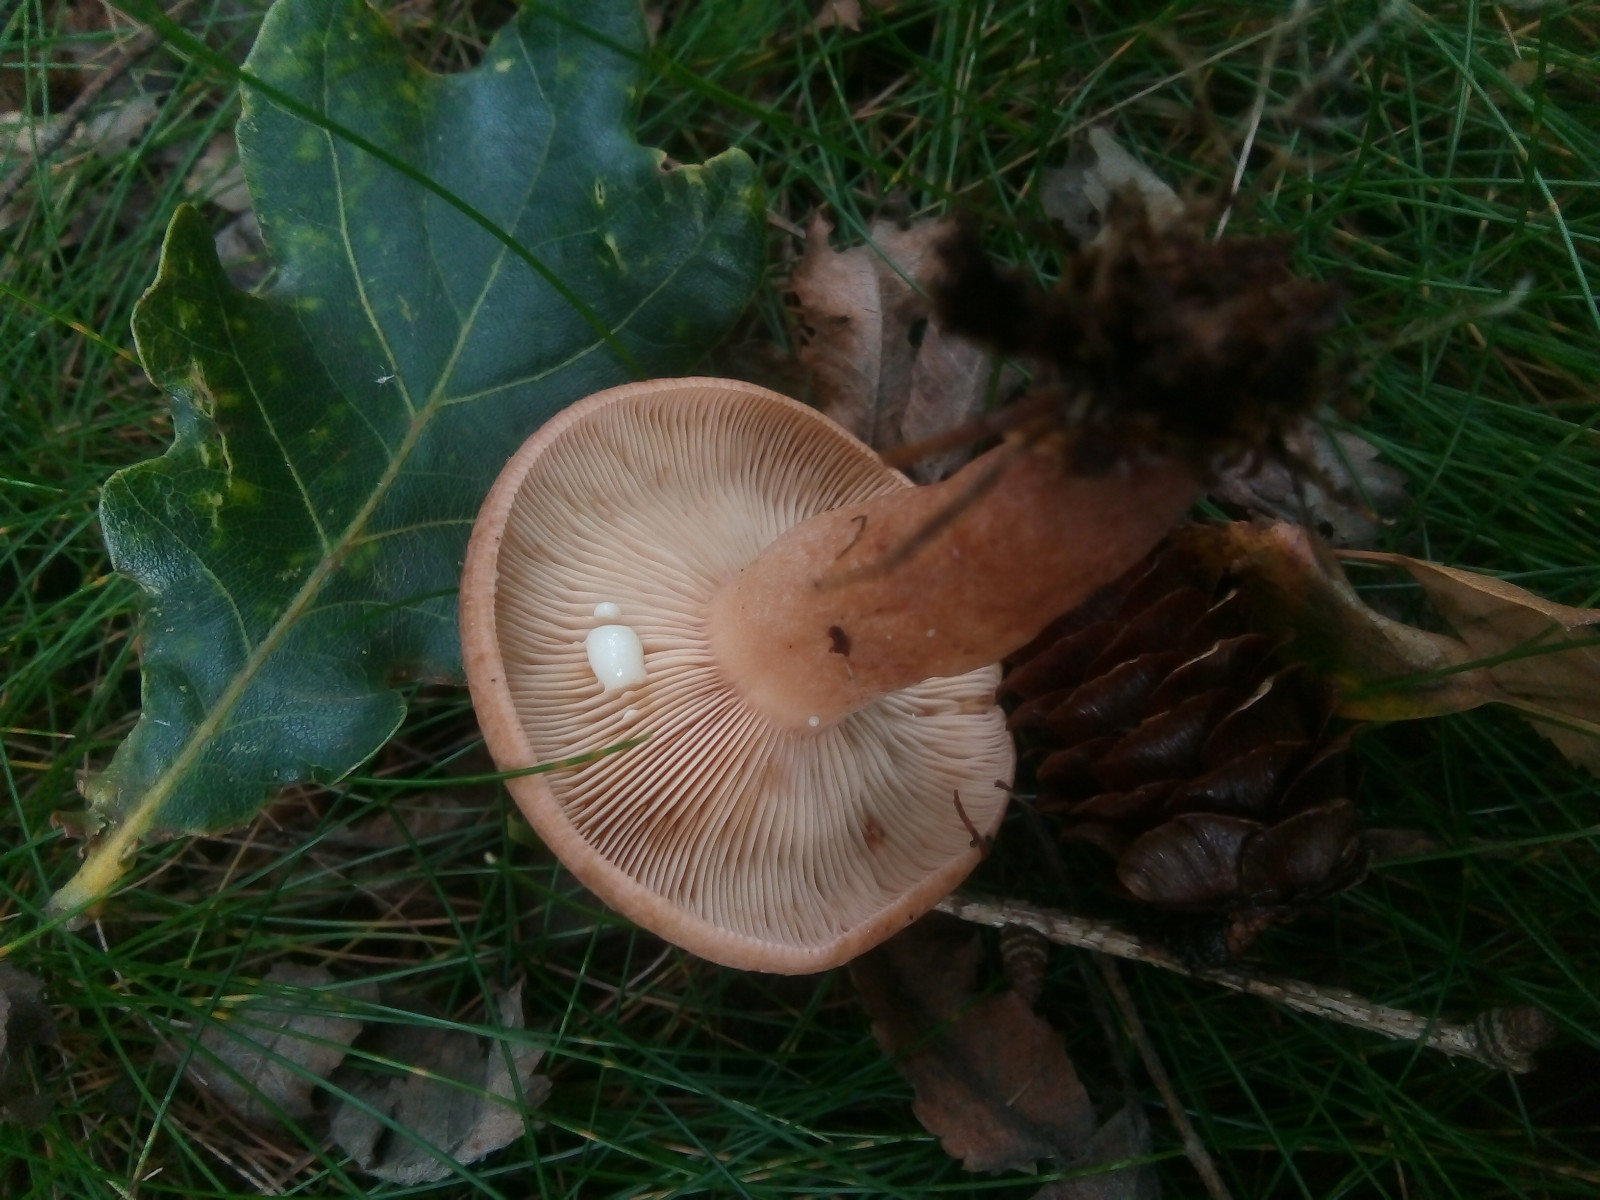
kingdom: Fungi
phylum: Basidiomycota
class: Agaricomycetes
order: Russulales
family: Russulaceae
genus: Lactarius
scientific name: Lactarius quietus
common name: ege-mælkehat
